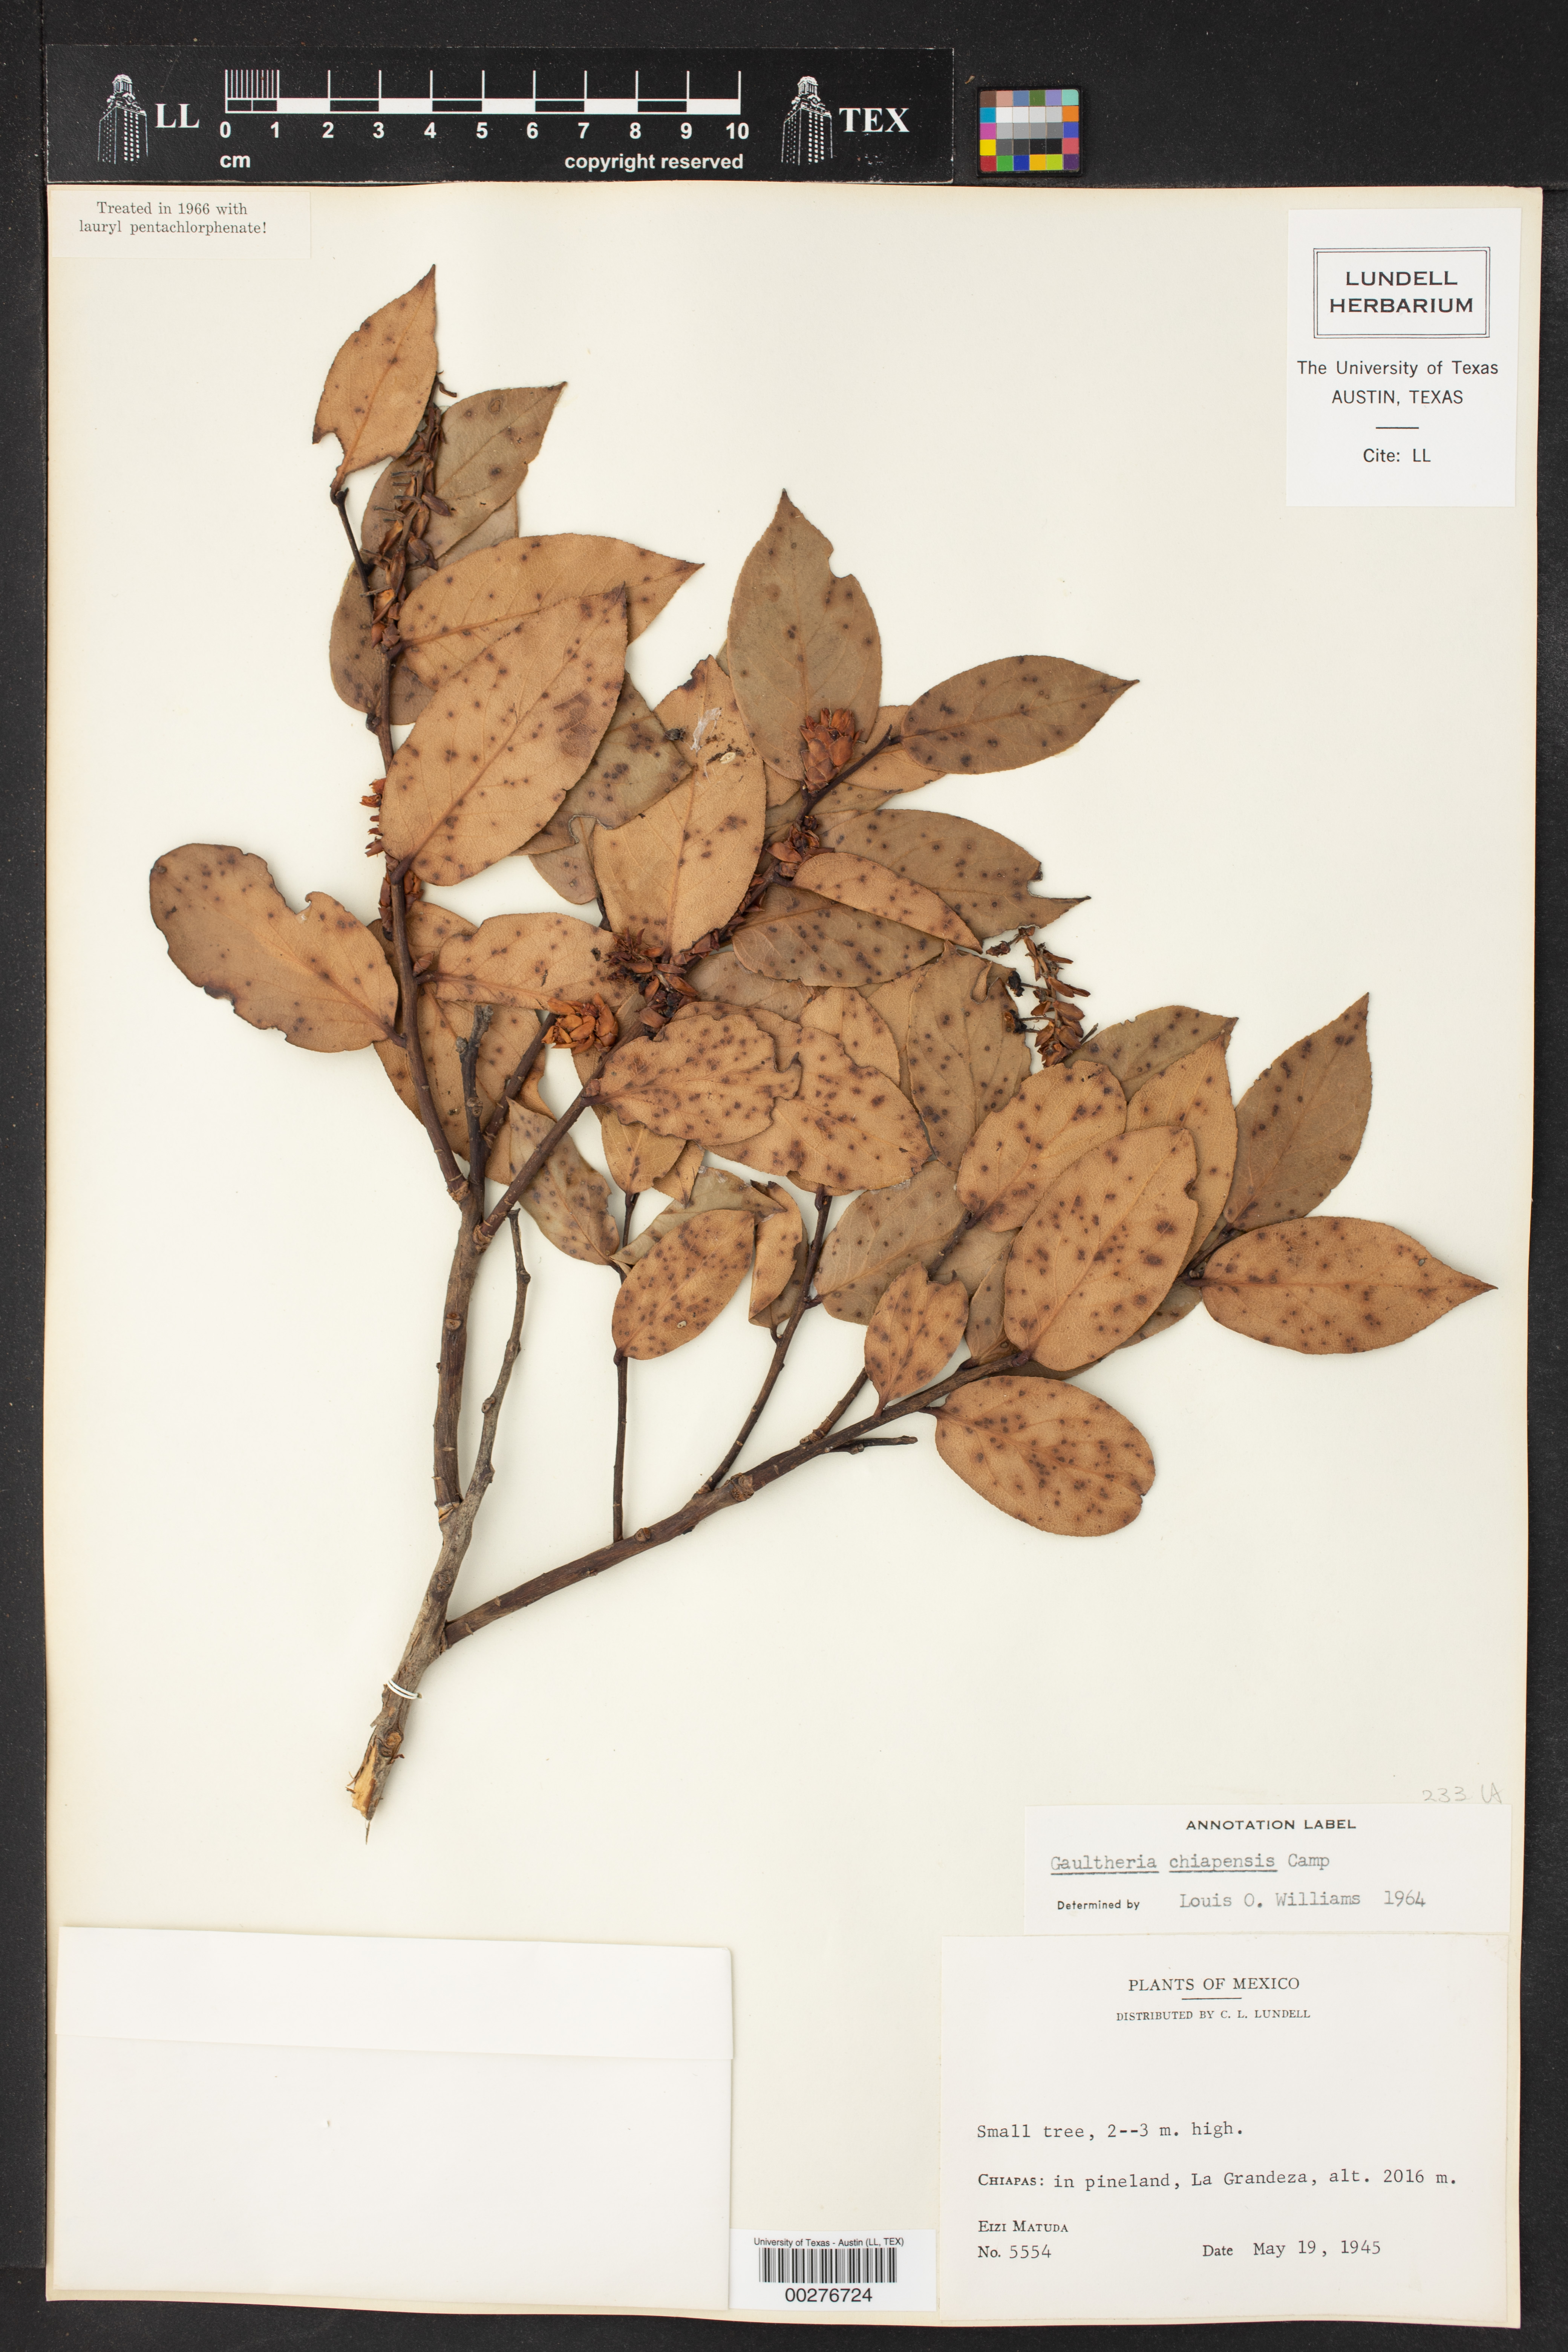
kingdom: Plantae
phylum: Tracheophyta
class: Magnoliopsida
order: Ericales
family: Ericaceae
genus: Gaultheria
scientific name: Gaultheria acuminata
